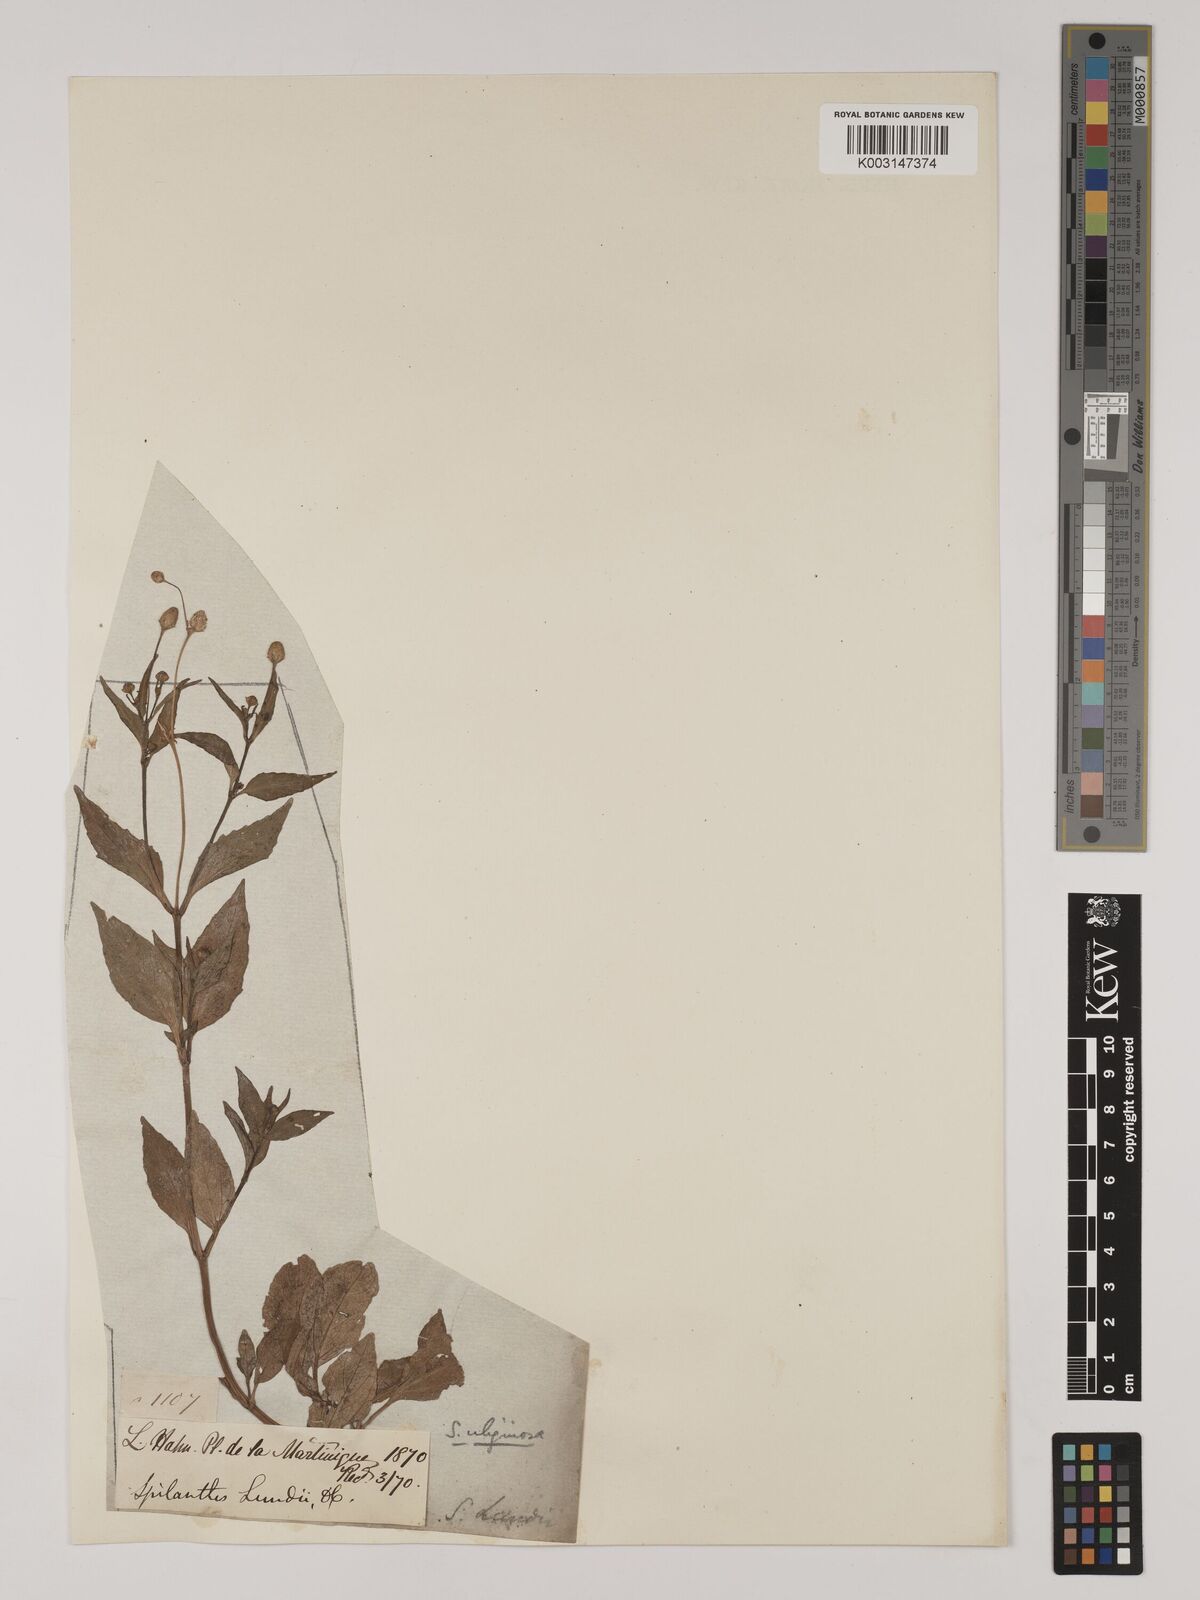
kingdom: Plantae
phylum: Tracheophyta
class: Magnoliopsida
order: Asterales
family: Asteraceae
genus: Acmella
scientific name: Acmella uliginosa
